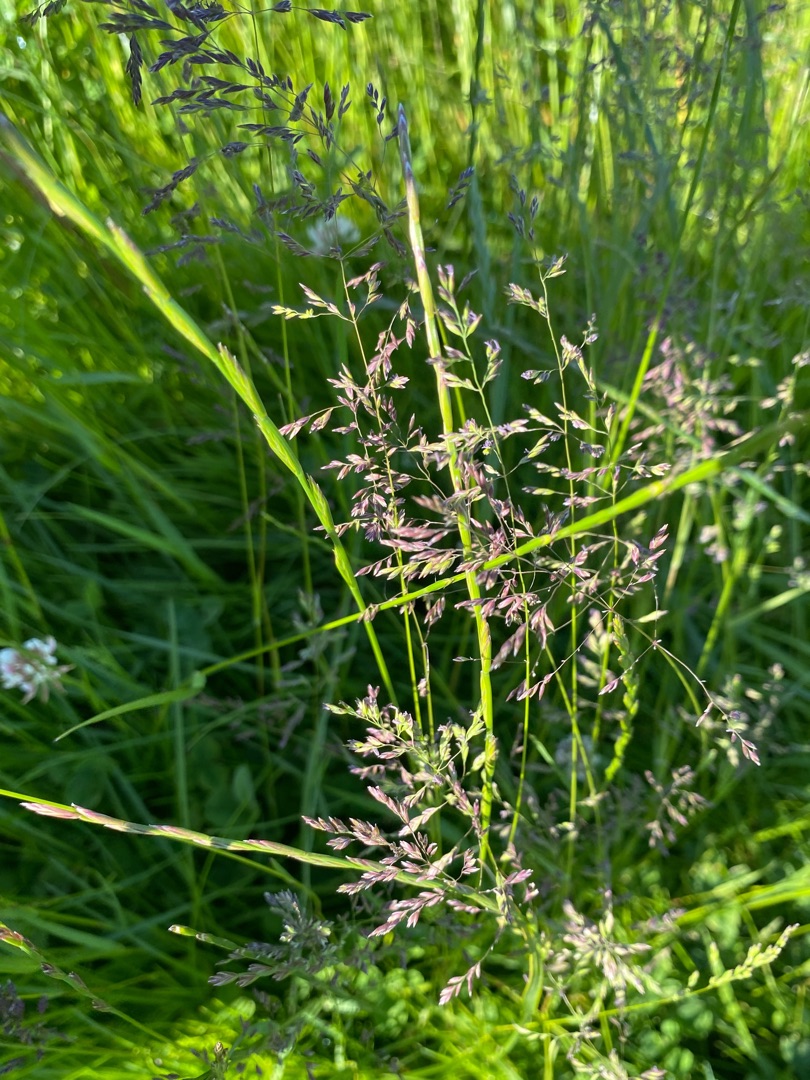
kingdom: Plantae
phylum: Tracheophyta
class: Liliopsida
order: Poales
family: Poaceae
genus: Poa
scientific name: Poa pratensis
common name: Eng-rapgræs
